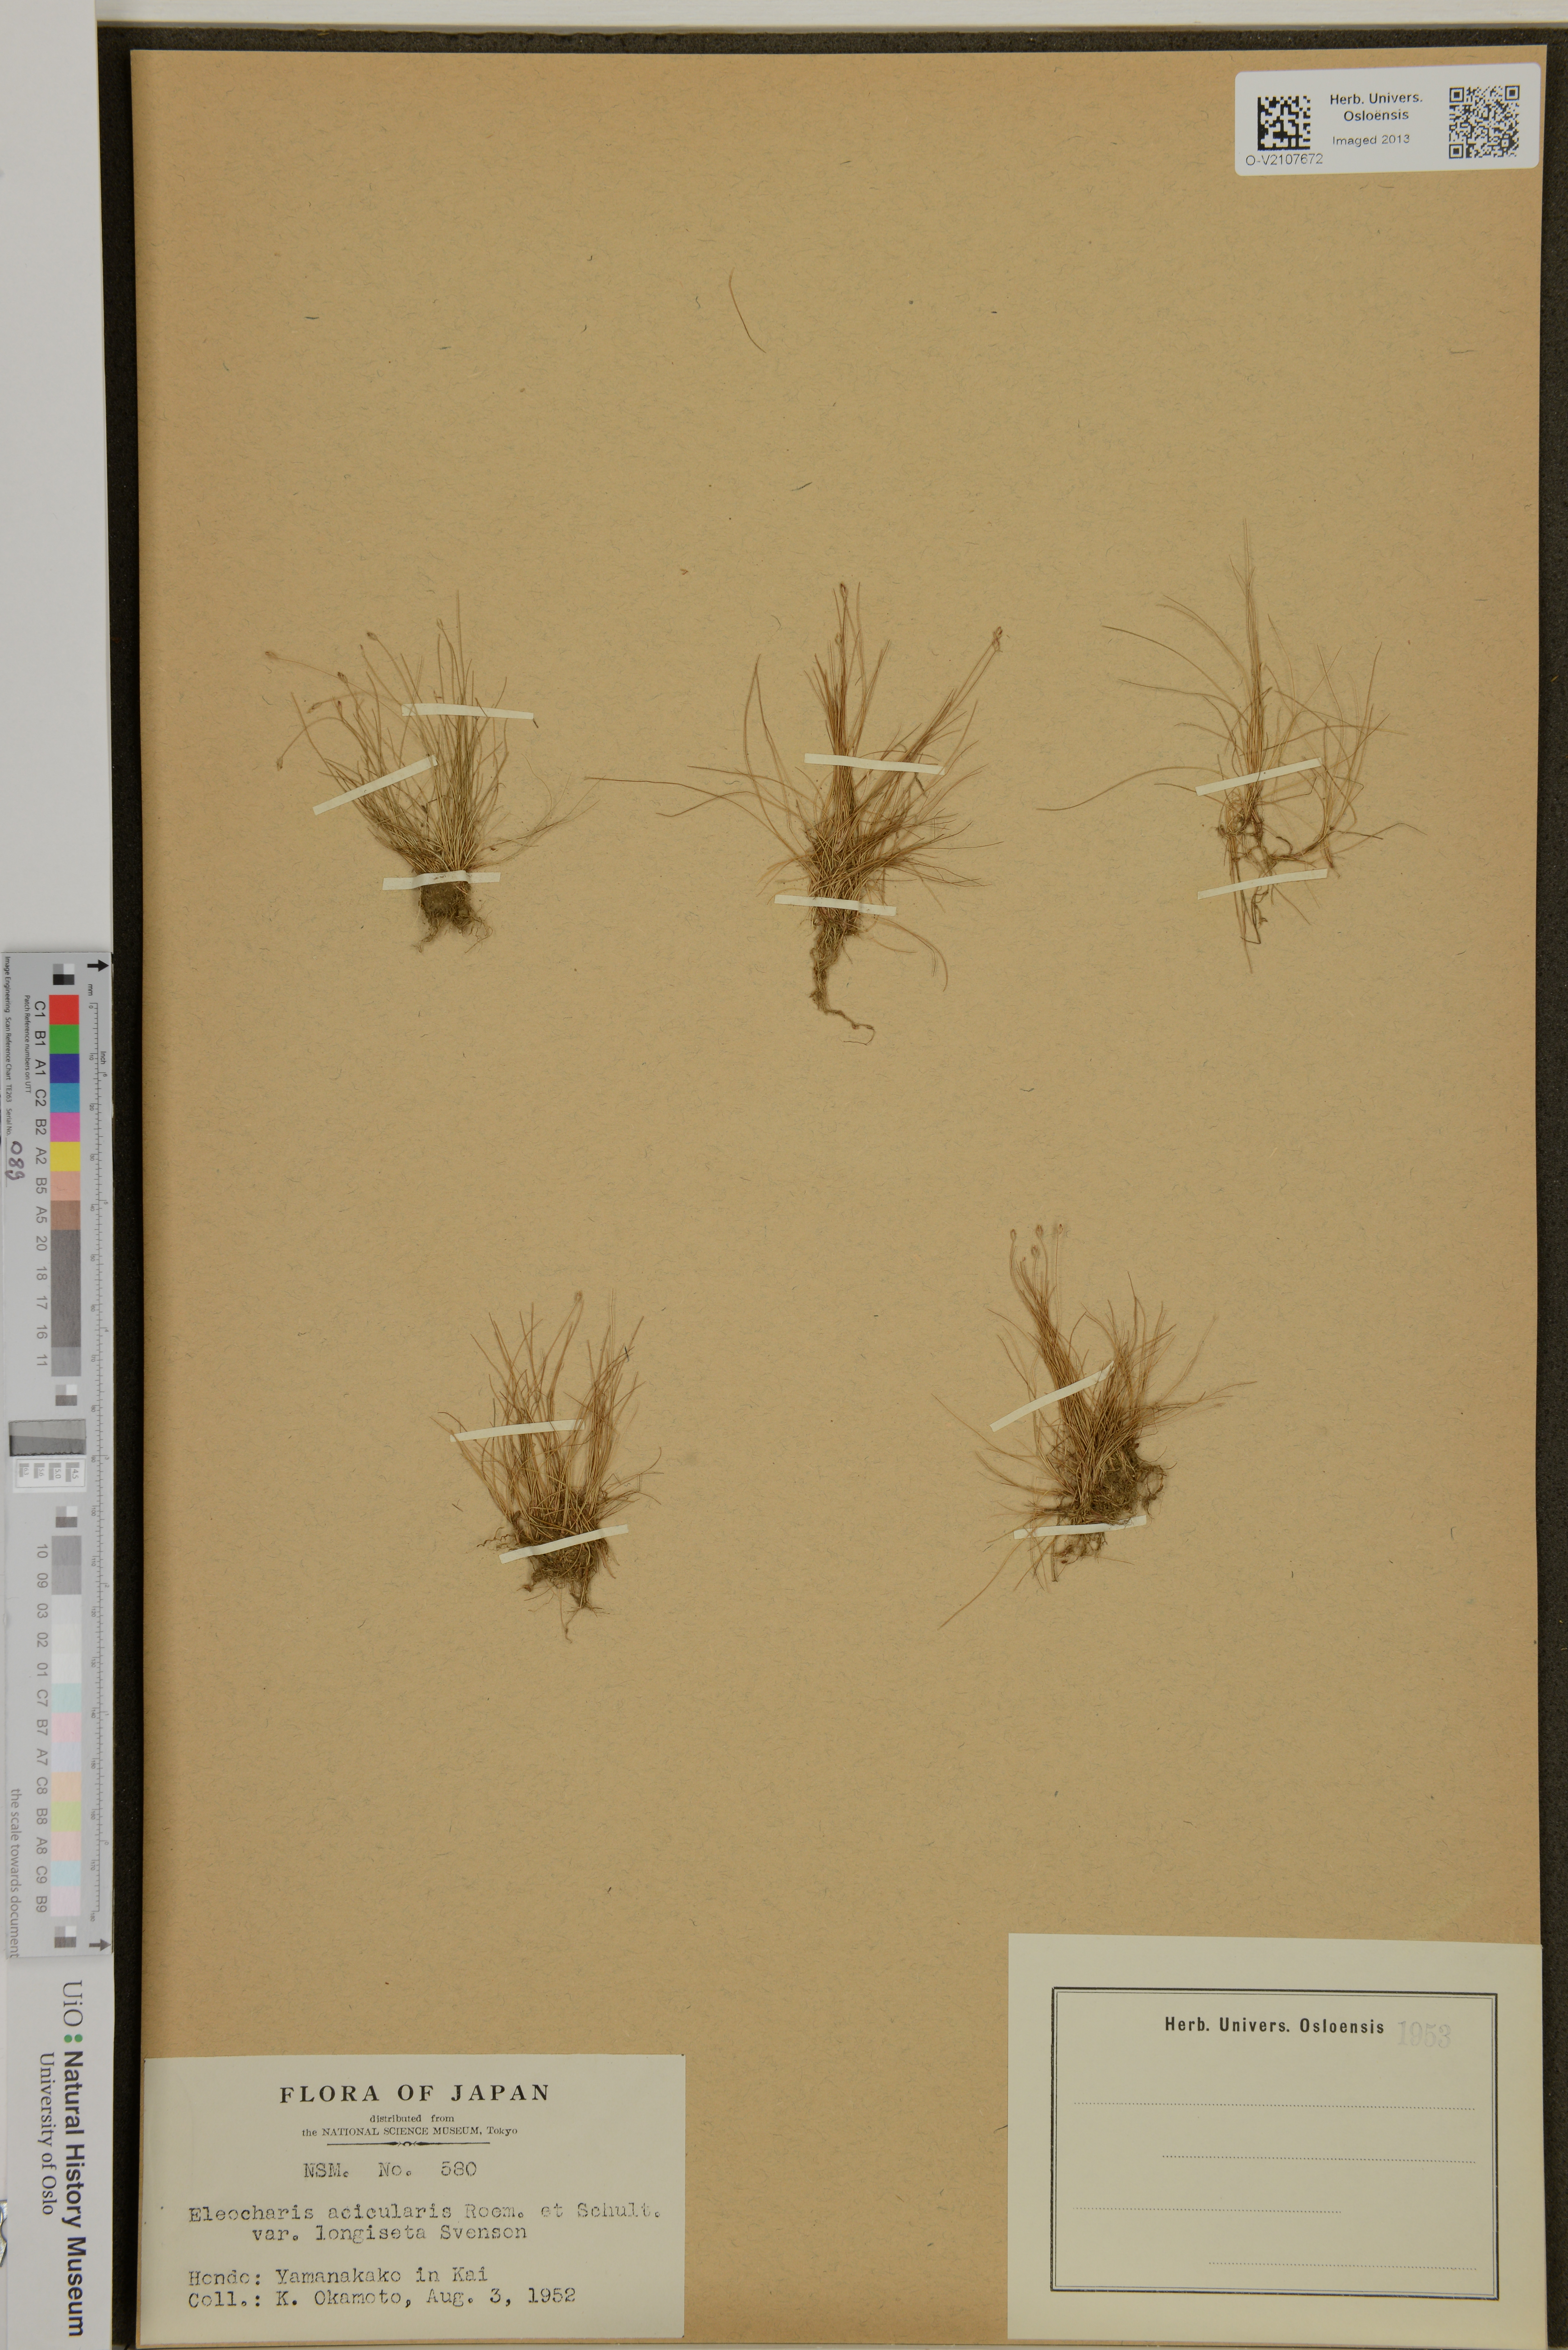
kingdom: Plantae
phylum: Tracheophyta
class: Liliopsida
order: Poales
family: Cyperaceae
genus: Eleocharis
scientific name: Eleocharis acicularis
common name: Needle spike-rush
